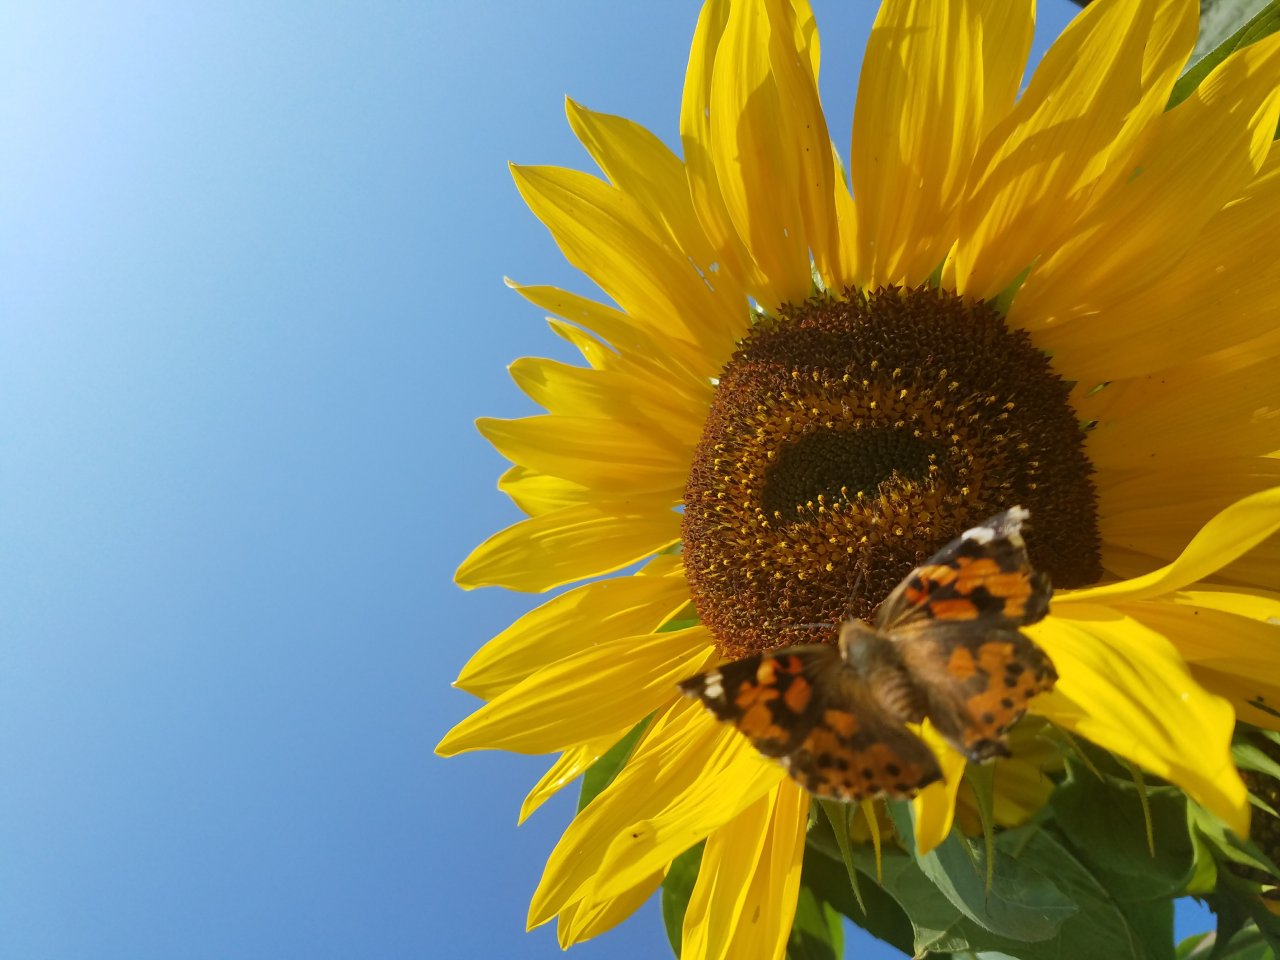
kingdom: Animalia
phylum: Arthropoda
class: Insecta
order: Lepidoptera
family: Nymphalidae
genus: Vanessa
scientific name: Vanessa cardui
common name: Painted Lady
